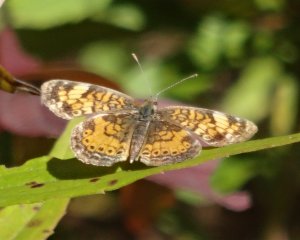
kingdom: Animalia
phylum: Arthropoda
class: Insecta
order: Lepidoptera
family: Nymphalidae
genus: Phyciodes
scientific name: Phyciodes tharos
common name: Northern Crescent
